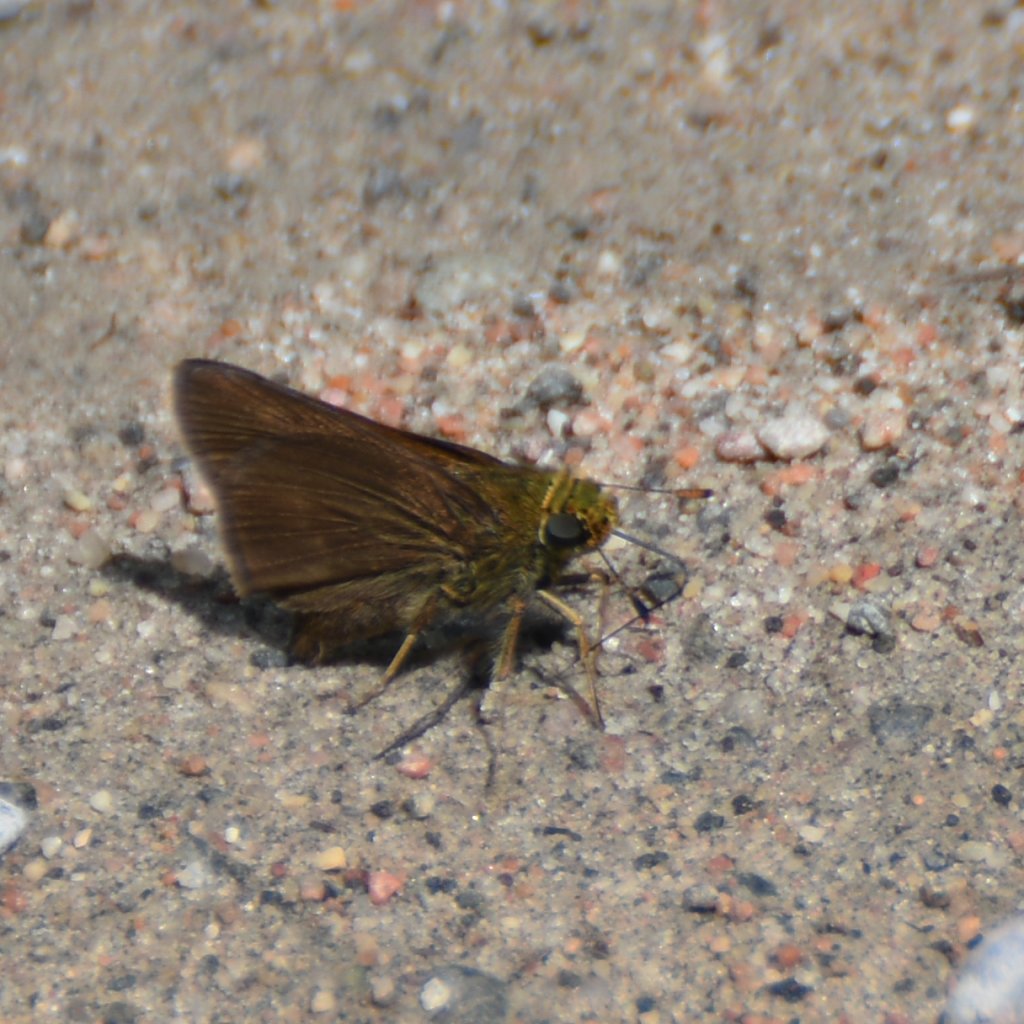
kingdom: Animalia
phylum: Arthropoda
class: Insecta
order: Lepidoptera
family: Hesperiidae
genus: Euphyes
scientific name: Euphyes vestris
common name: Dun Skipper
